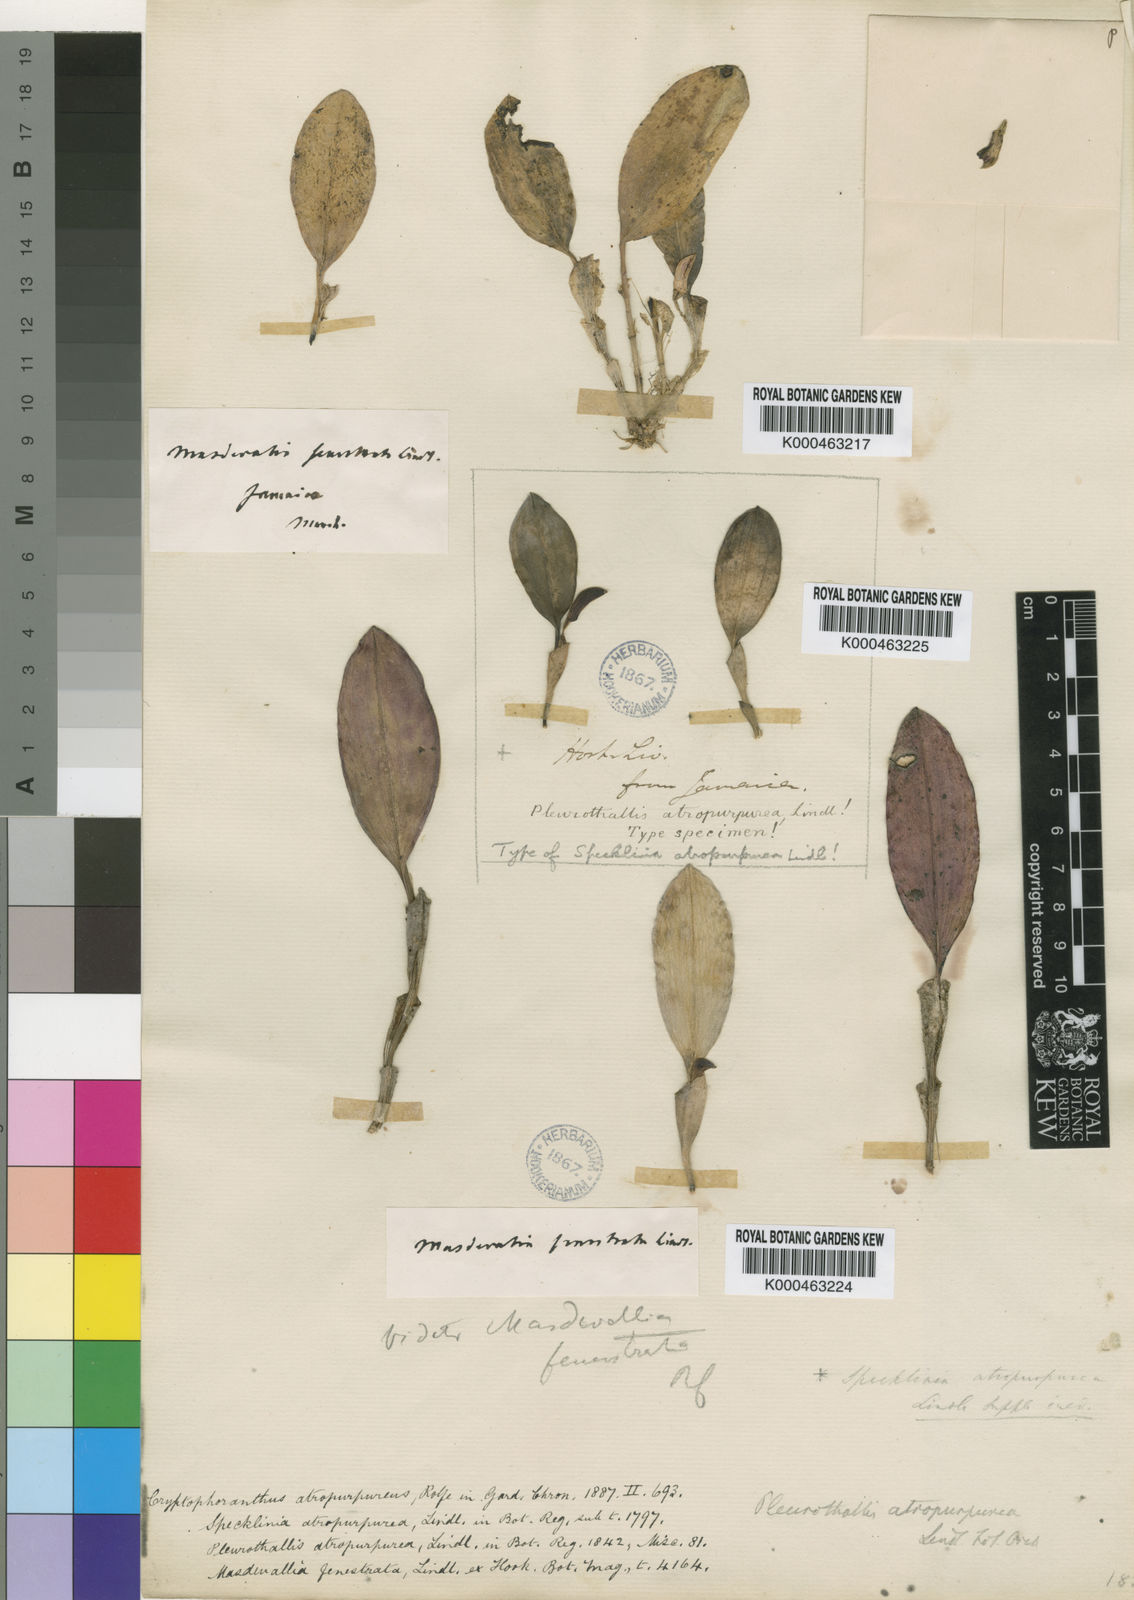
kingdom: Plantae
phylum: Tracheophyta
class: Liliopsida
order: Asparagales
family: Orchidaceae
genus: Zootrophion
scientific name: Zootrophion atropurpureum
